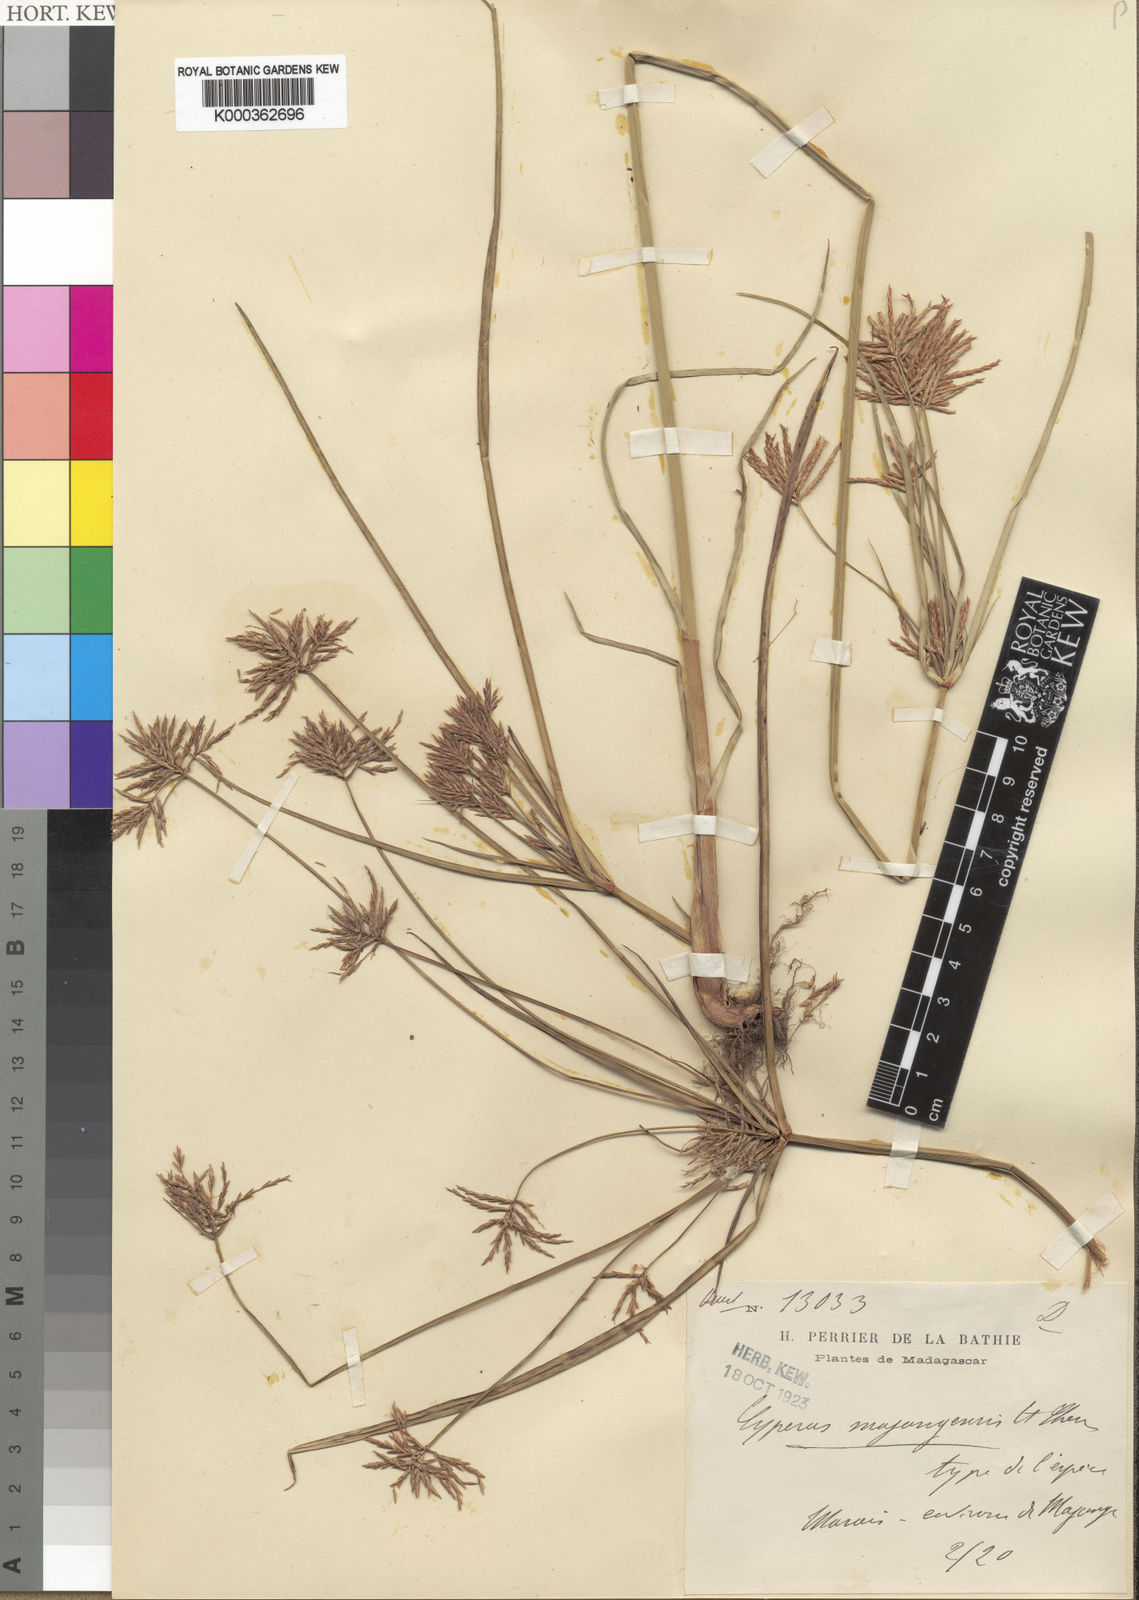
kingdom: Plantae
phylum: Tracheophyta
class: Liliopsida
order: Poales
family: Cyperaceae
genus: Cyperus
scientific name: Cyperus tenuiculmis
